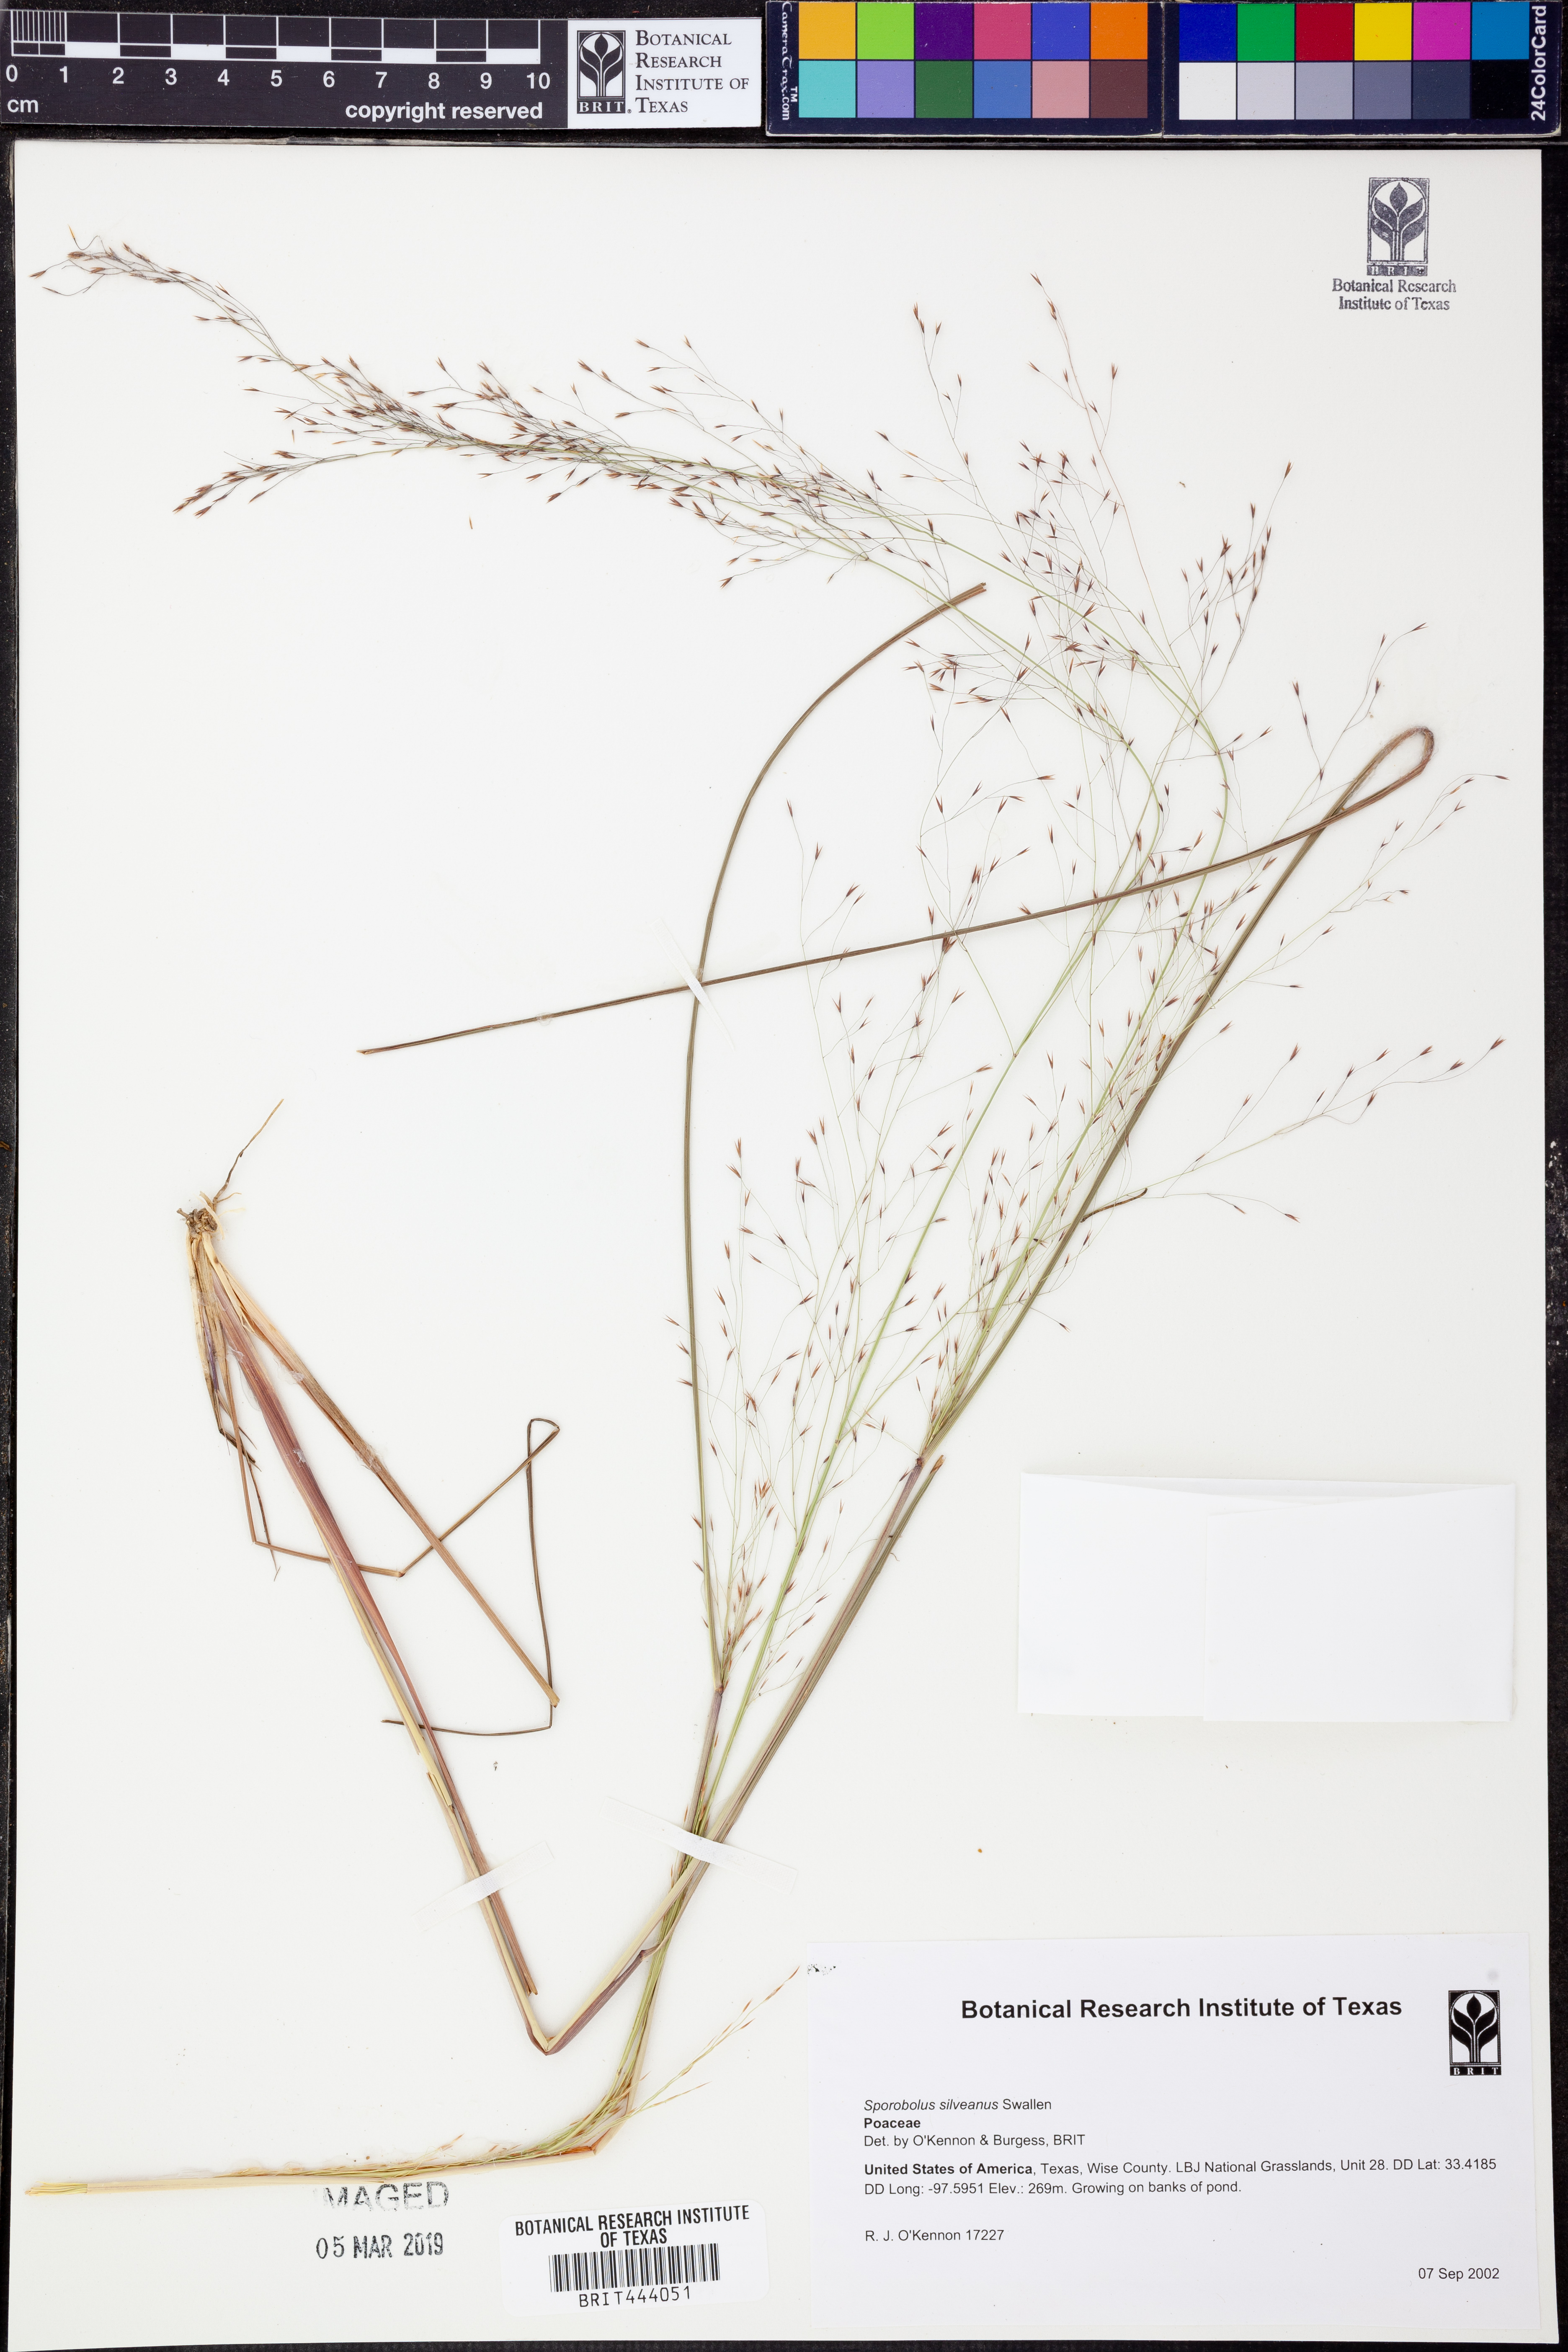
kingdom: Plantae
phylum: Tracheophyta
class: Liliopsida
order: Poales
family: Poaceae
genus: Sporobolus
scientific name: Sporobolus silveanus
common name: Silveus's dropseed
